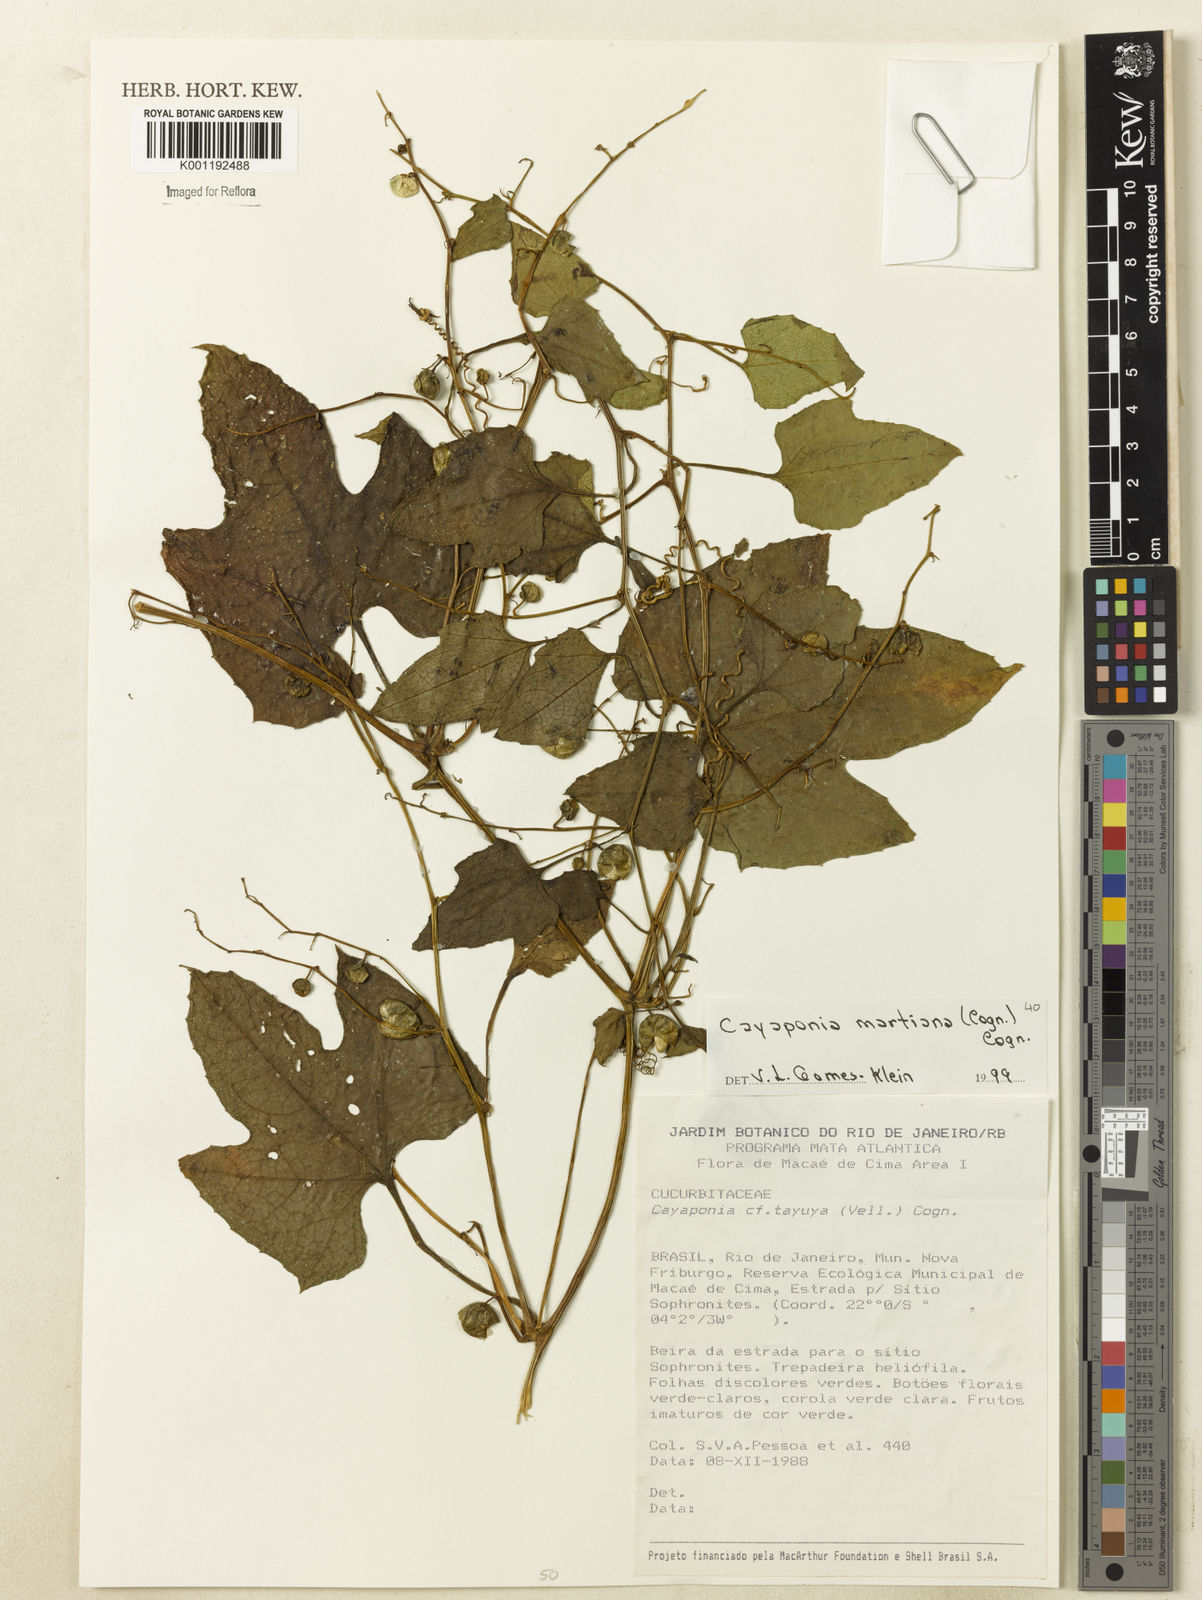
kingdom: Plantae
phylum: Tracheophyta
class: Magnoliopsida
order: Cucurbitales
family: Cucurbitaceae
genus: Cayaponia
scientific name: Cayaponia martiana
